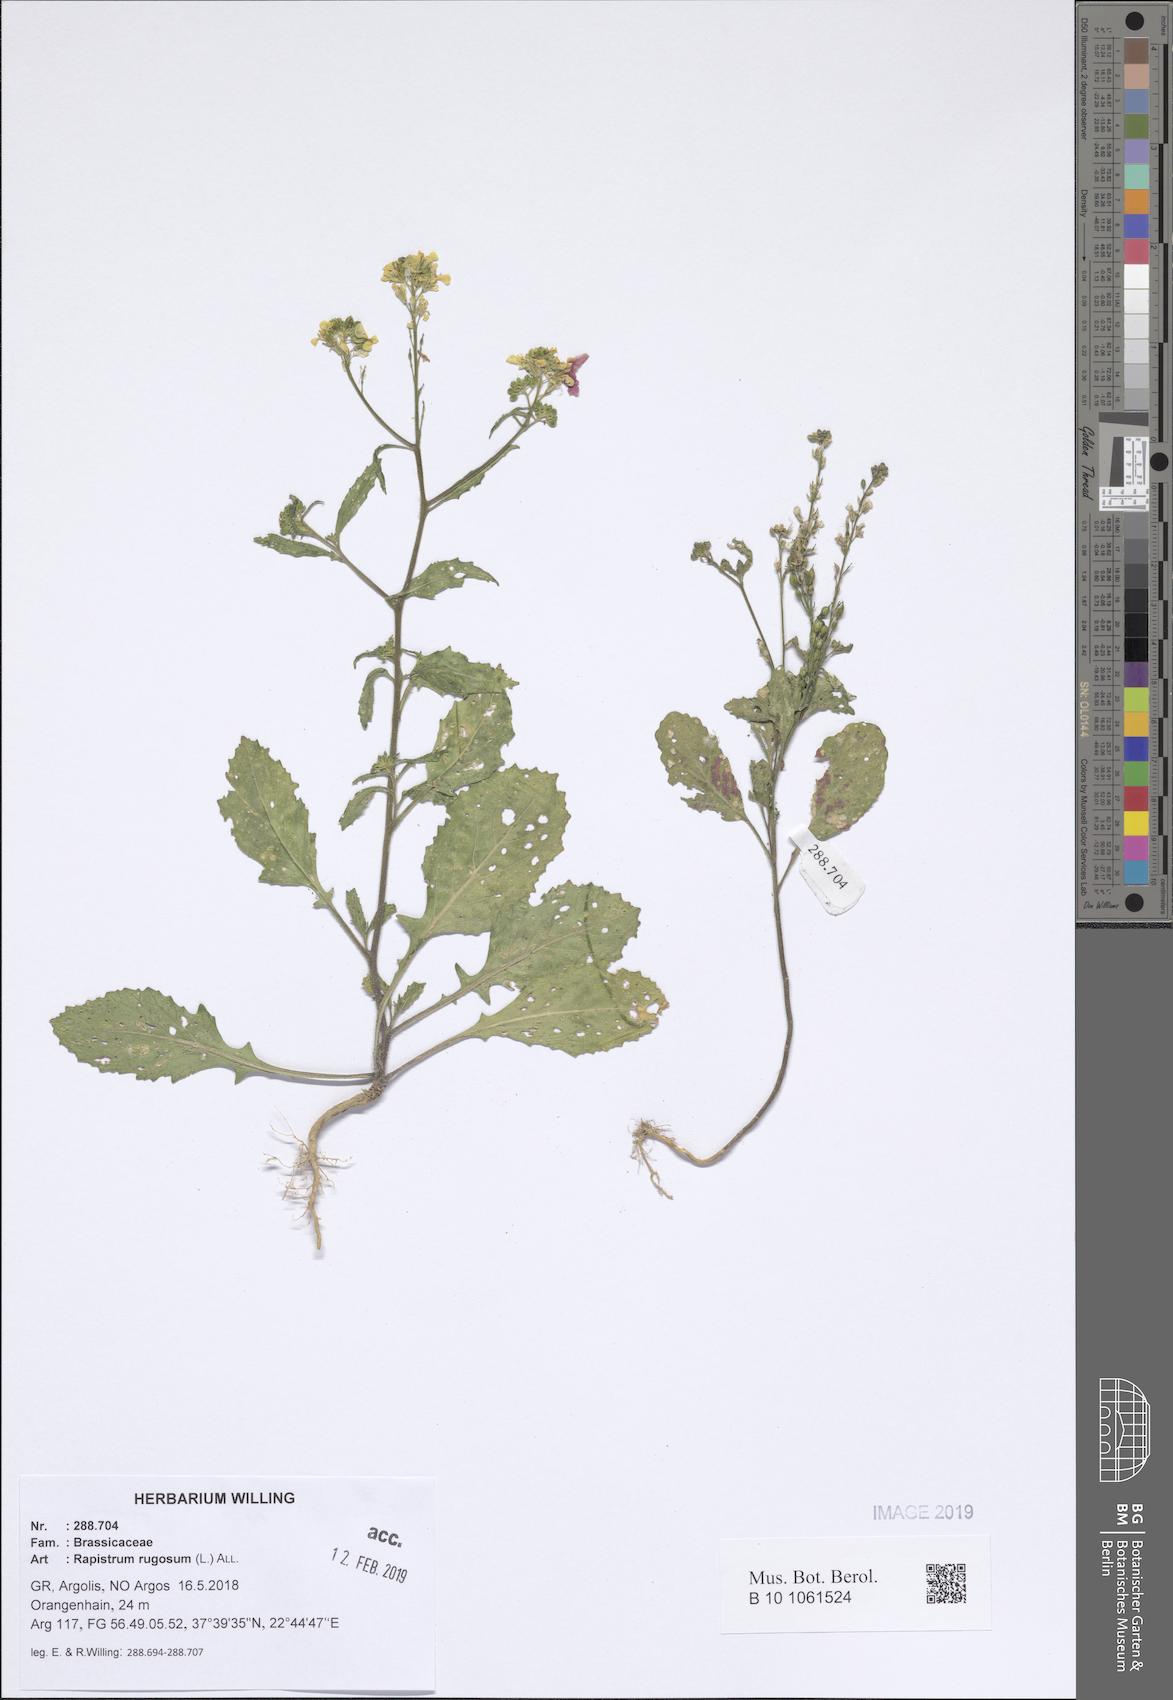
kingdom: Plantae
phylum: Tracheophyta
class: Magnoliopsida
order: Brassicales
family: Brassicaceae
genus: Rapistrum
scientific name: Rapistrum rugosum
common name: Annual bastardcabbage
